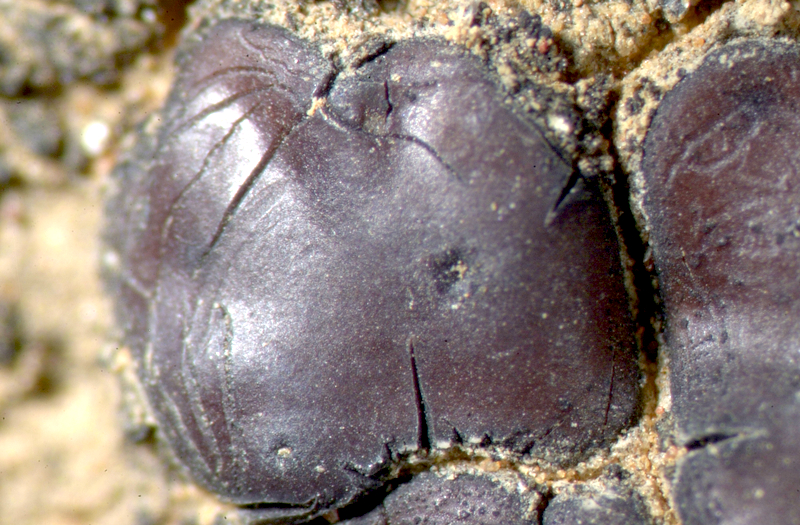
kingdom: Fungi
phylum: Ascomycota
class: Eurotiomycetes
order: Verrucariales
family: Verrucariaceae
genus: Catapyrenium
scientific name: Catapyrenium squamulosum
